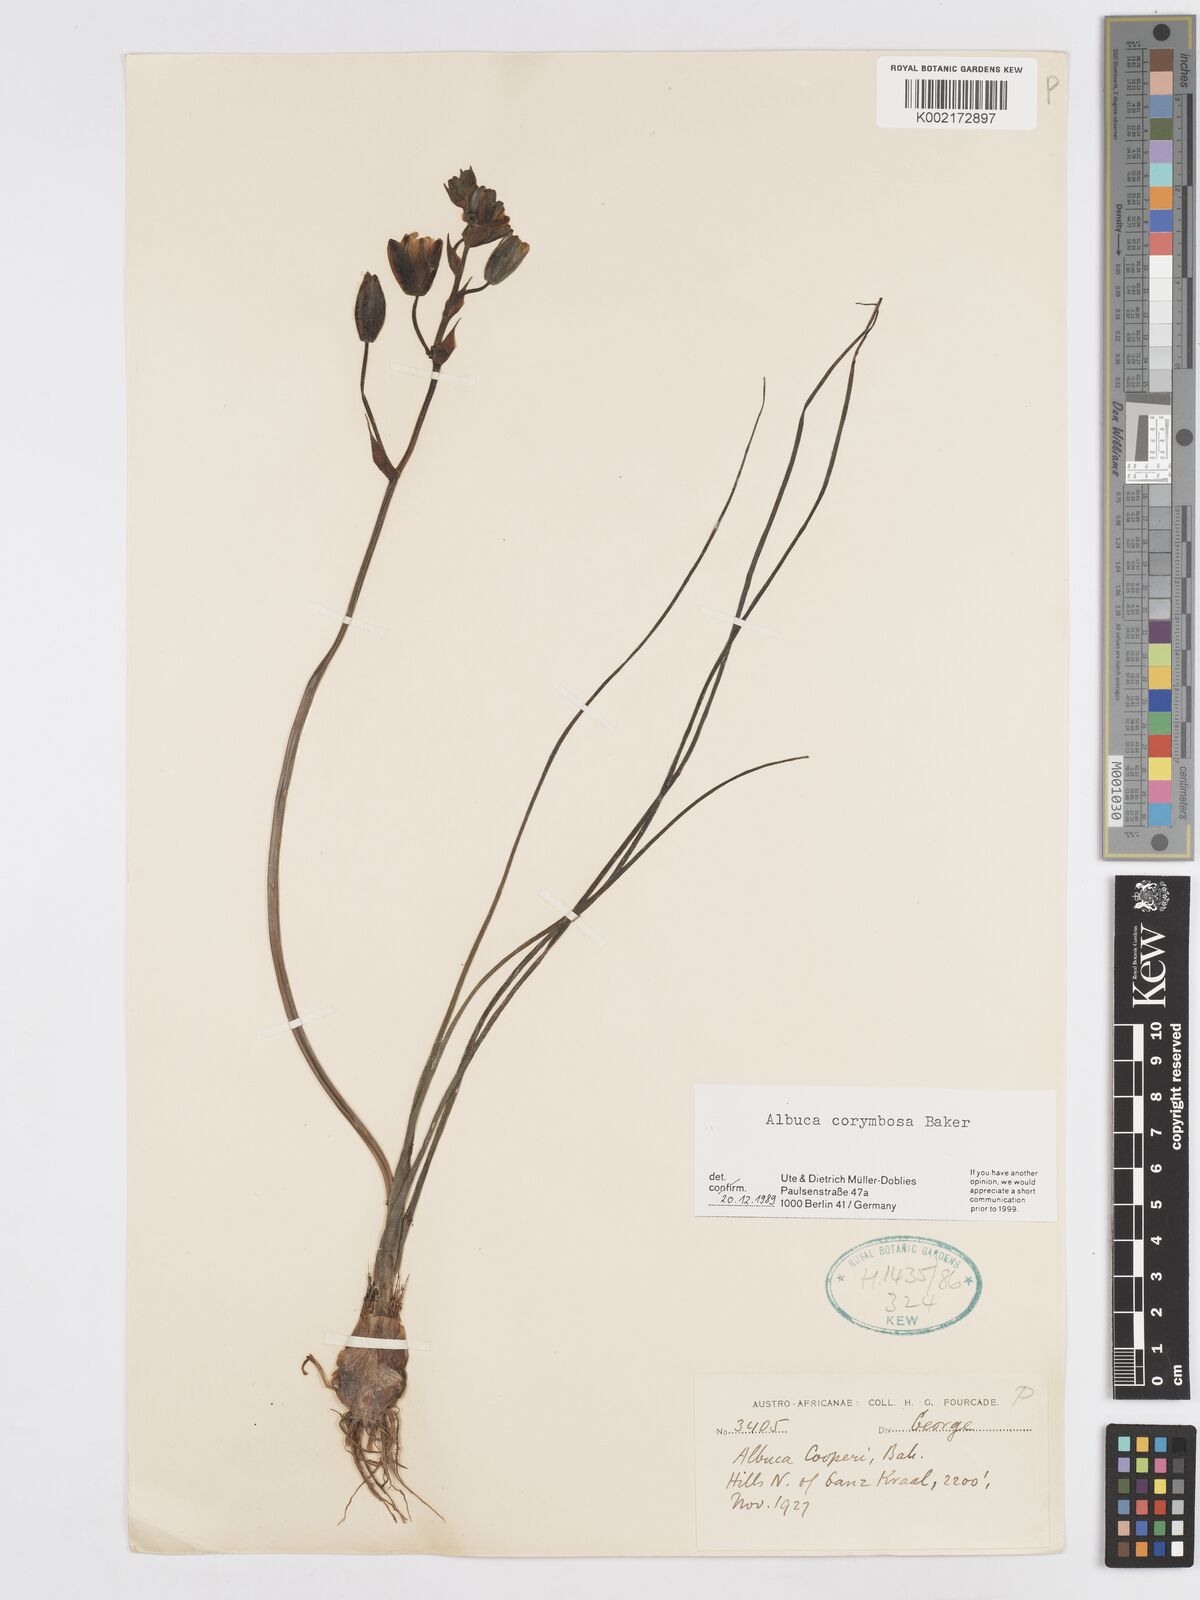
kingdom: Plantae
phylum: Tracheophyta
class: Liliopsida
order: Asparagales
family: Asparagaceae
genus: Albuca
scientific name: Albuca corymbosa
